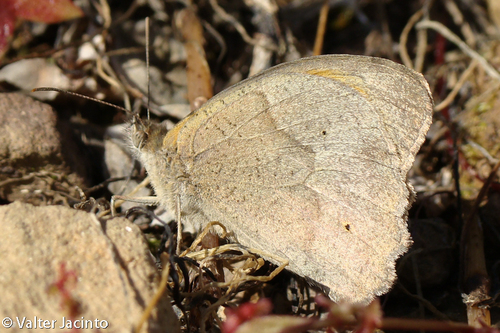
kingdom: Animalia
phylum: Arthropoda
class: Insecta
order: Lepidoptera
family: Nymphalidae
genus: Maniola
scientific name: Maniola jurtina
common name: Meadow brown
